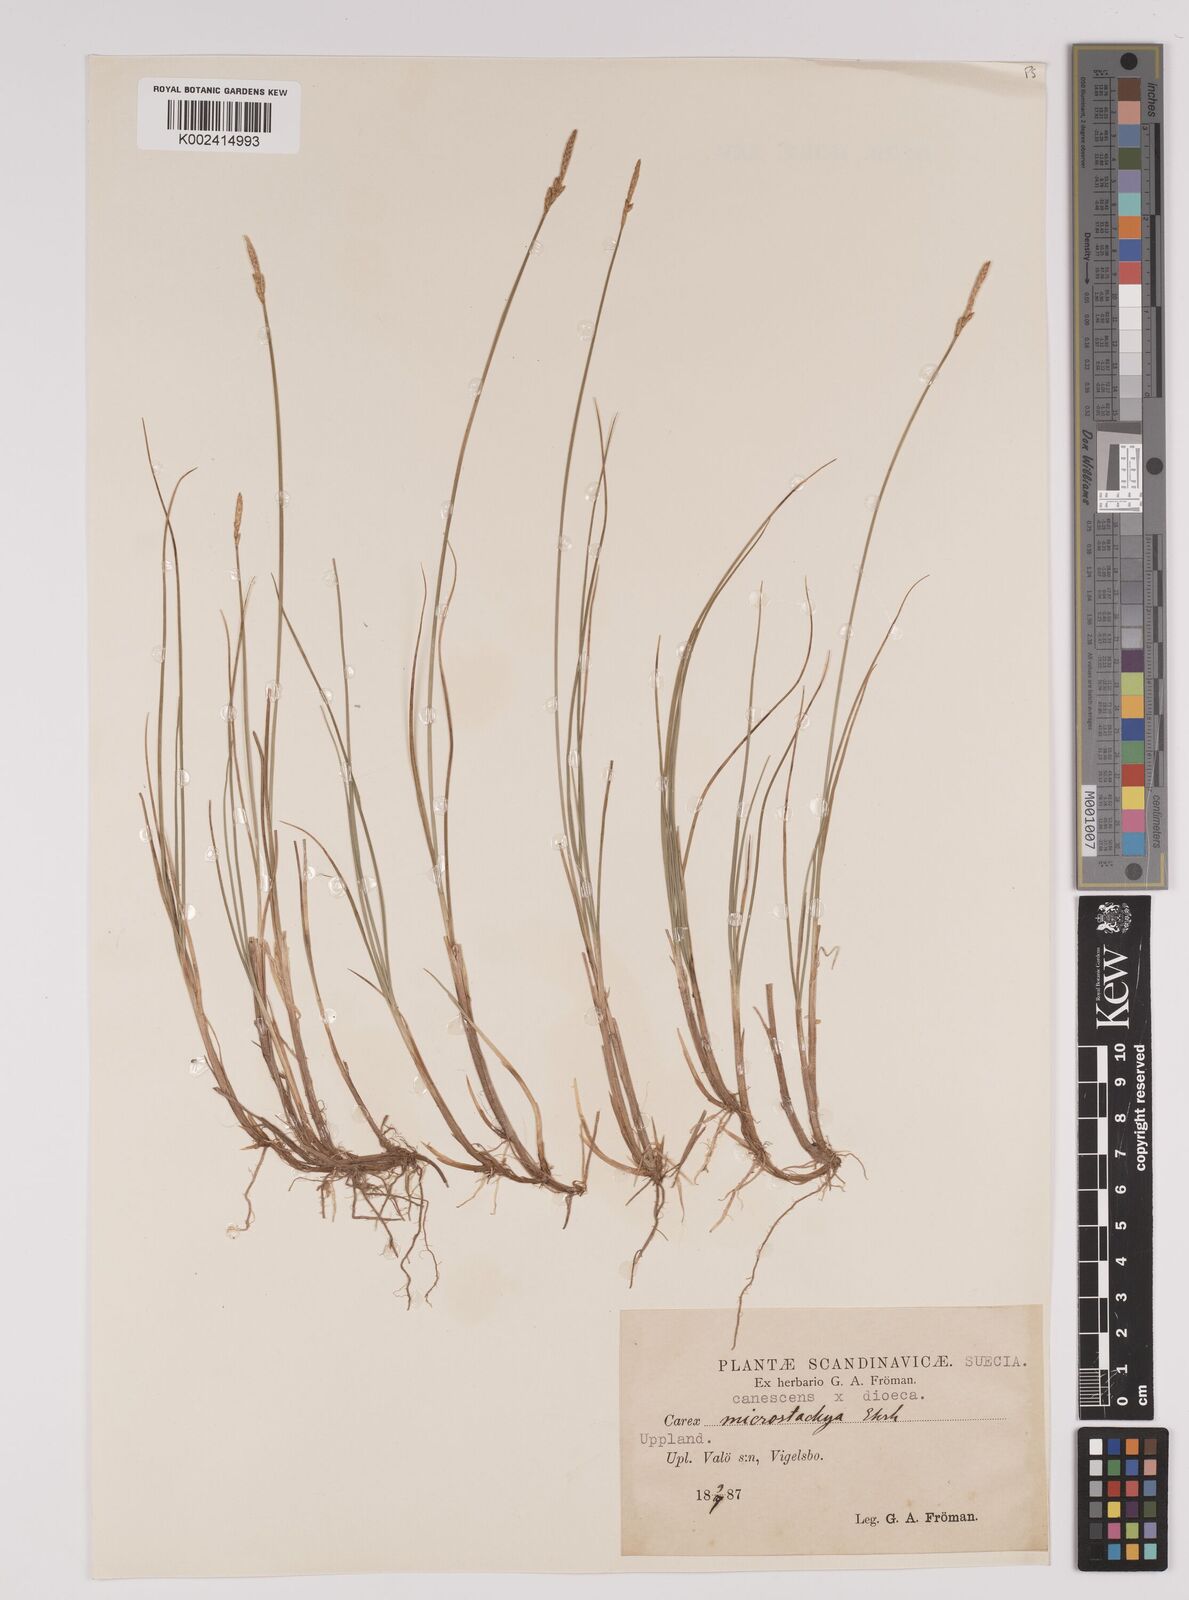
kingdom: Plantae
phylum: Tracheophyta
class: Liliopsida
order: Poales
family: Cyperaceae
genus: Carex
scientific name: Carex dioica
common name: Dioecious sedge
